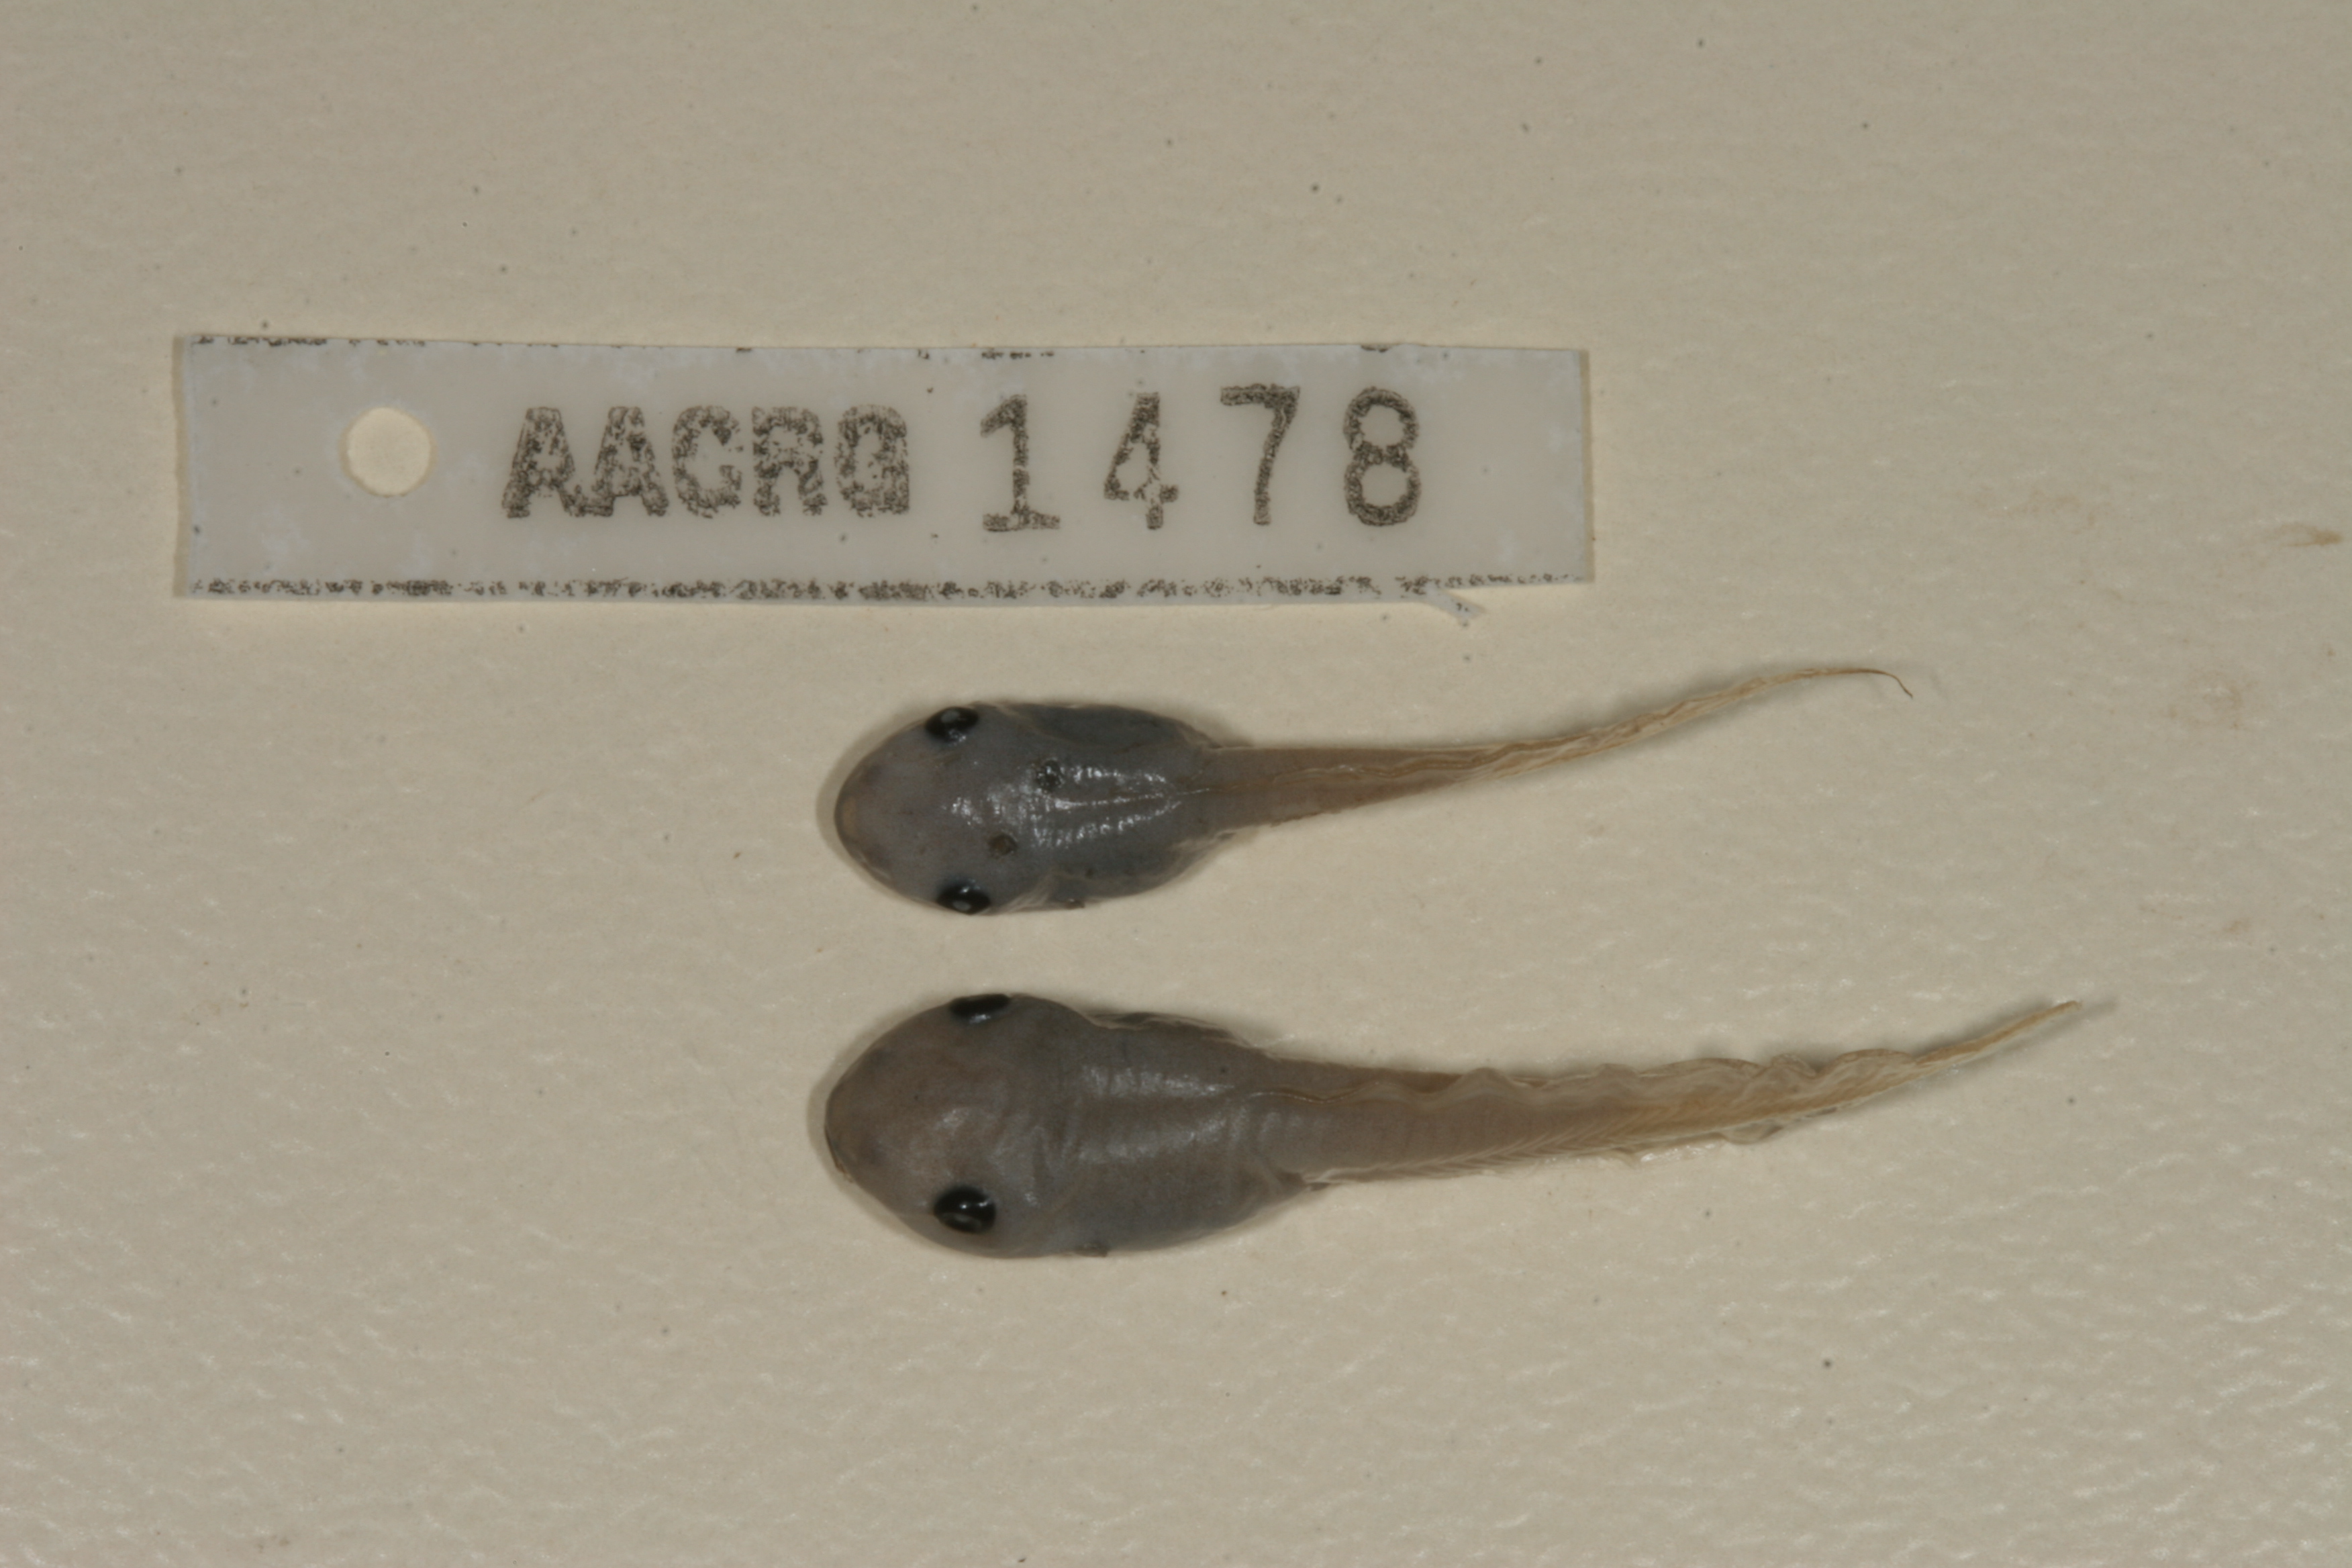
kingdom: Animalia
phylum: Chordata
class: Amphibia
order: Anura
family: Hemisotidae
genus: Hemisus
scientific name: Hemisus marmoratus
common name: Mottled shovel-nosed frog
